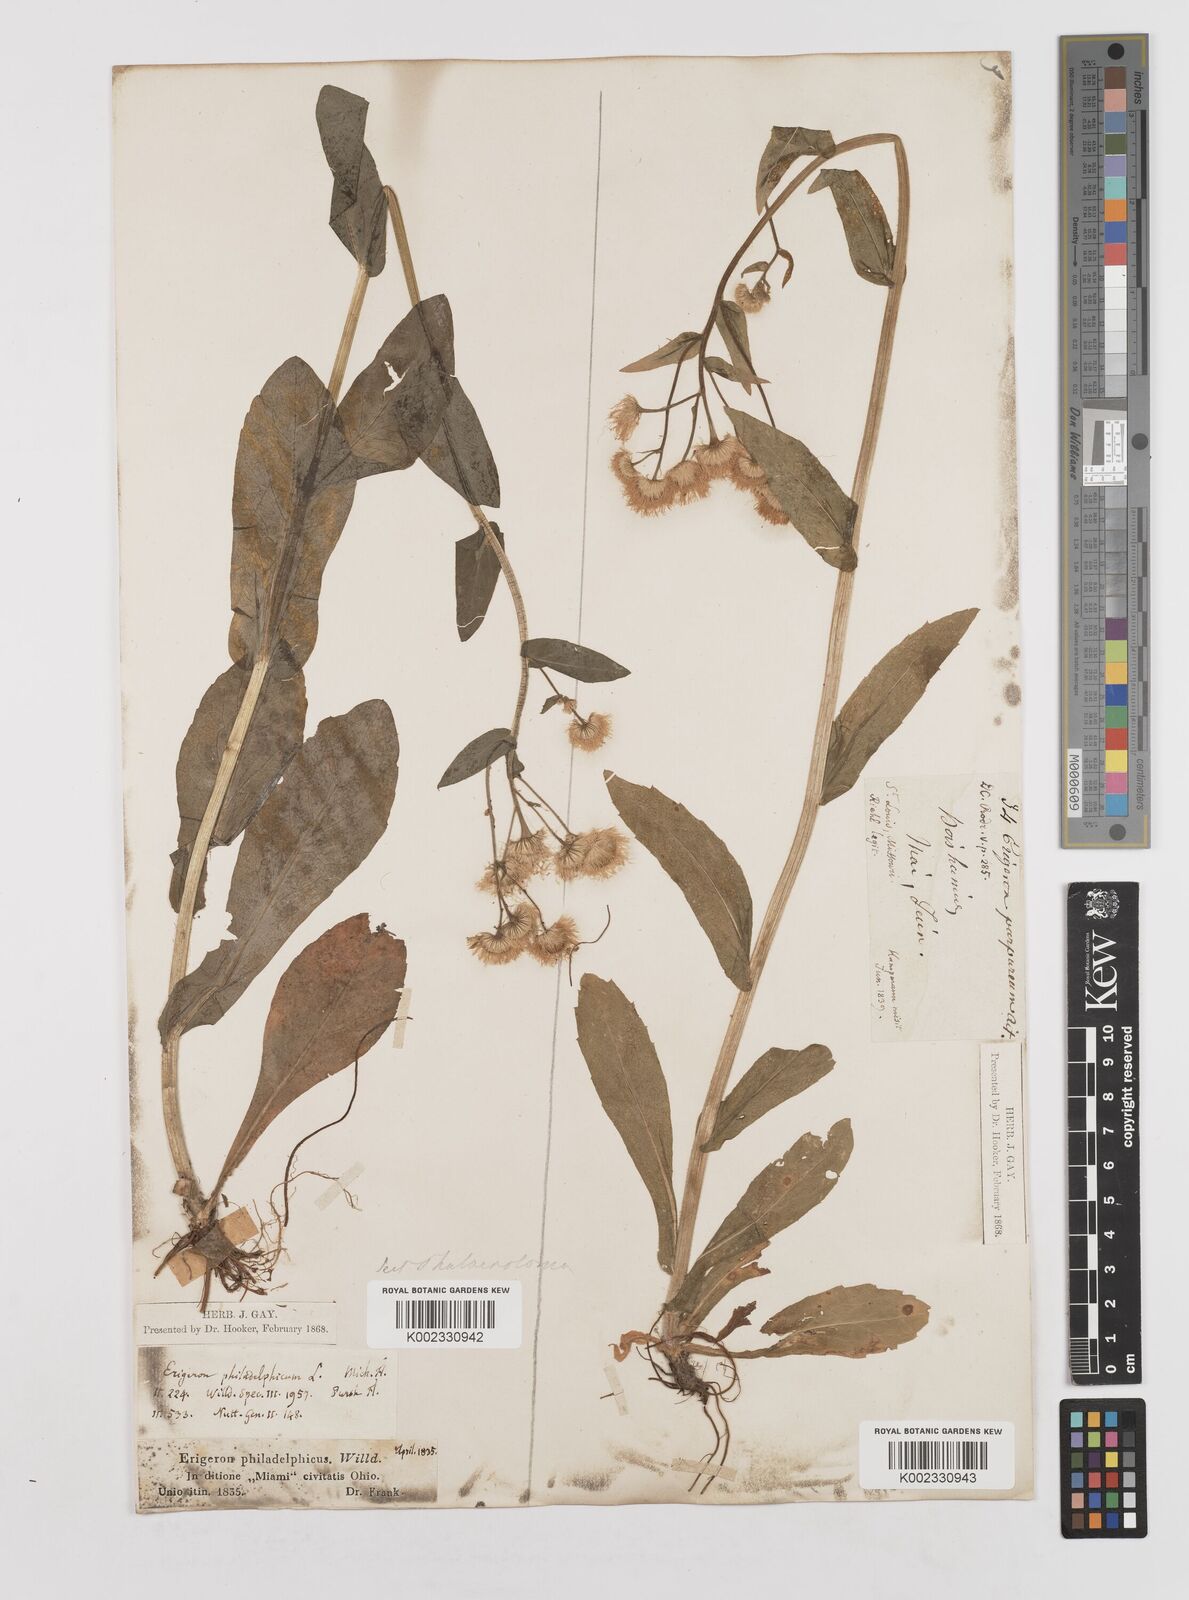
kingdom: Plantae
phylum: Tracheophyta
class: Magnoliopsida
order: Asterales
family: Asteraceae
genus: Erigeron
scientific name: Erigeron philadelphicus
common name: Robin's-plantain
